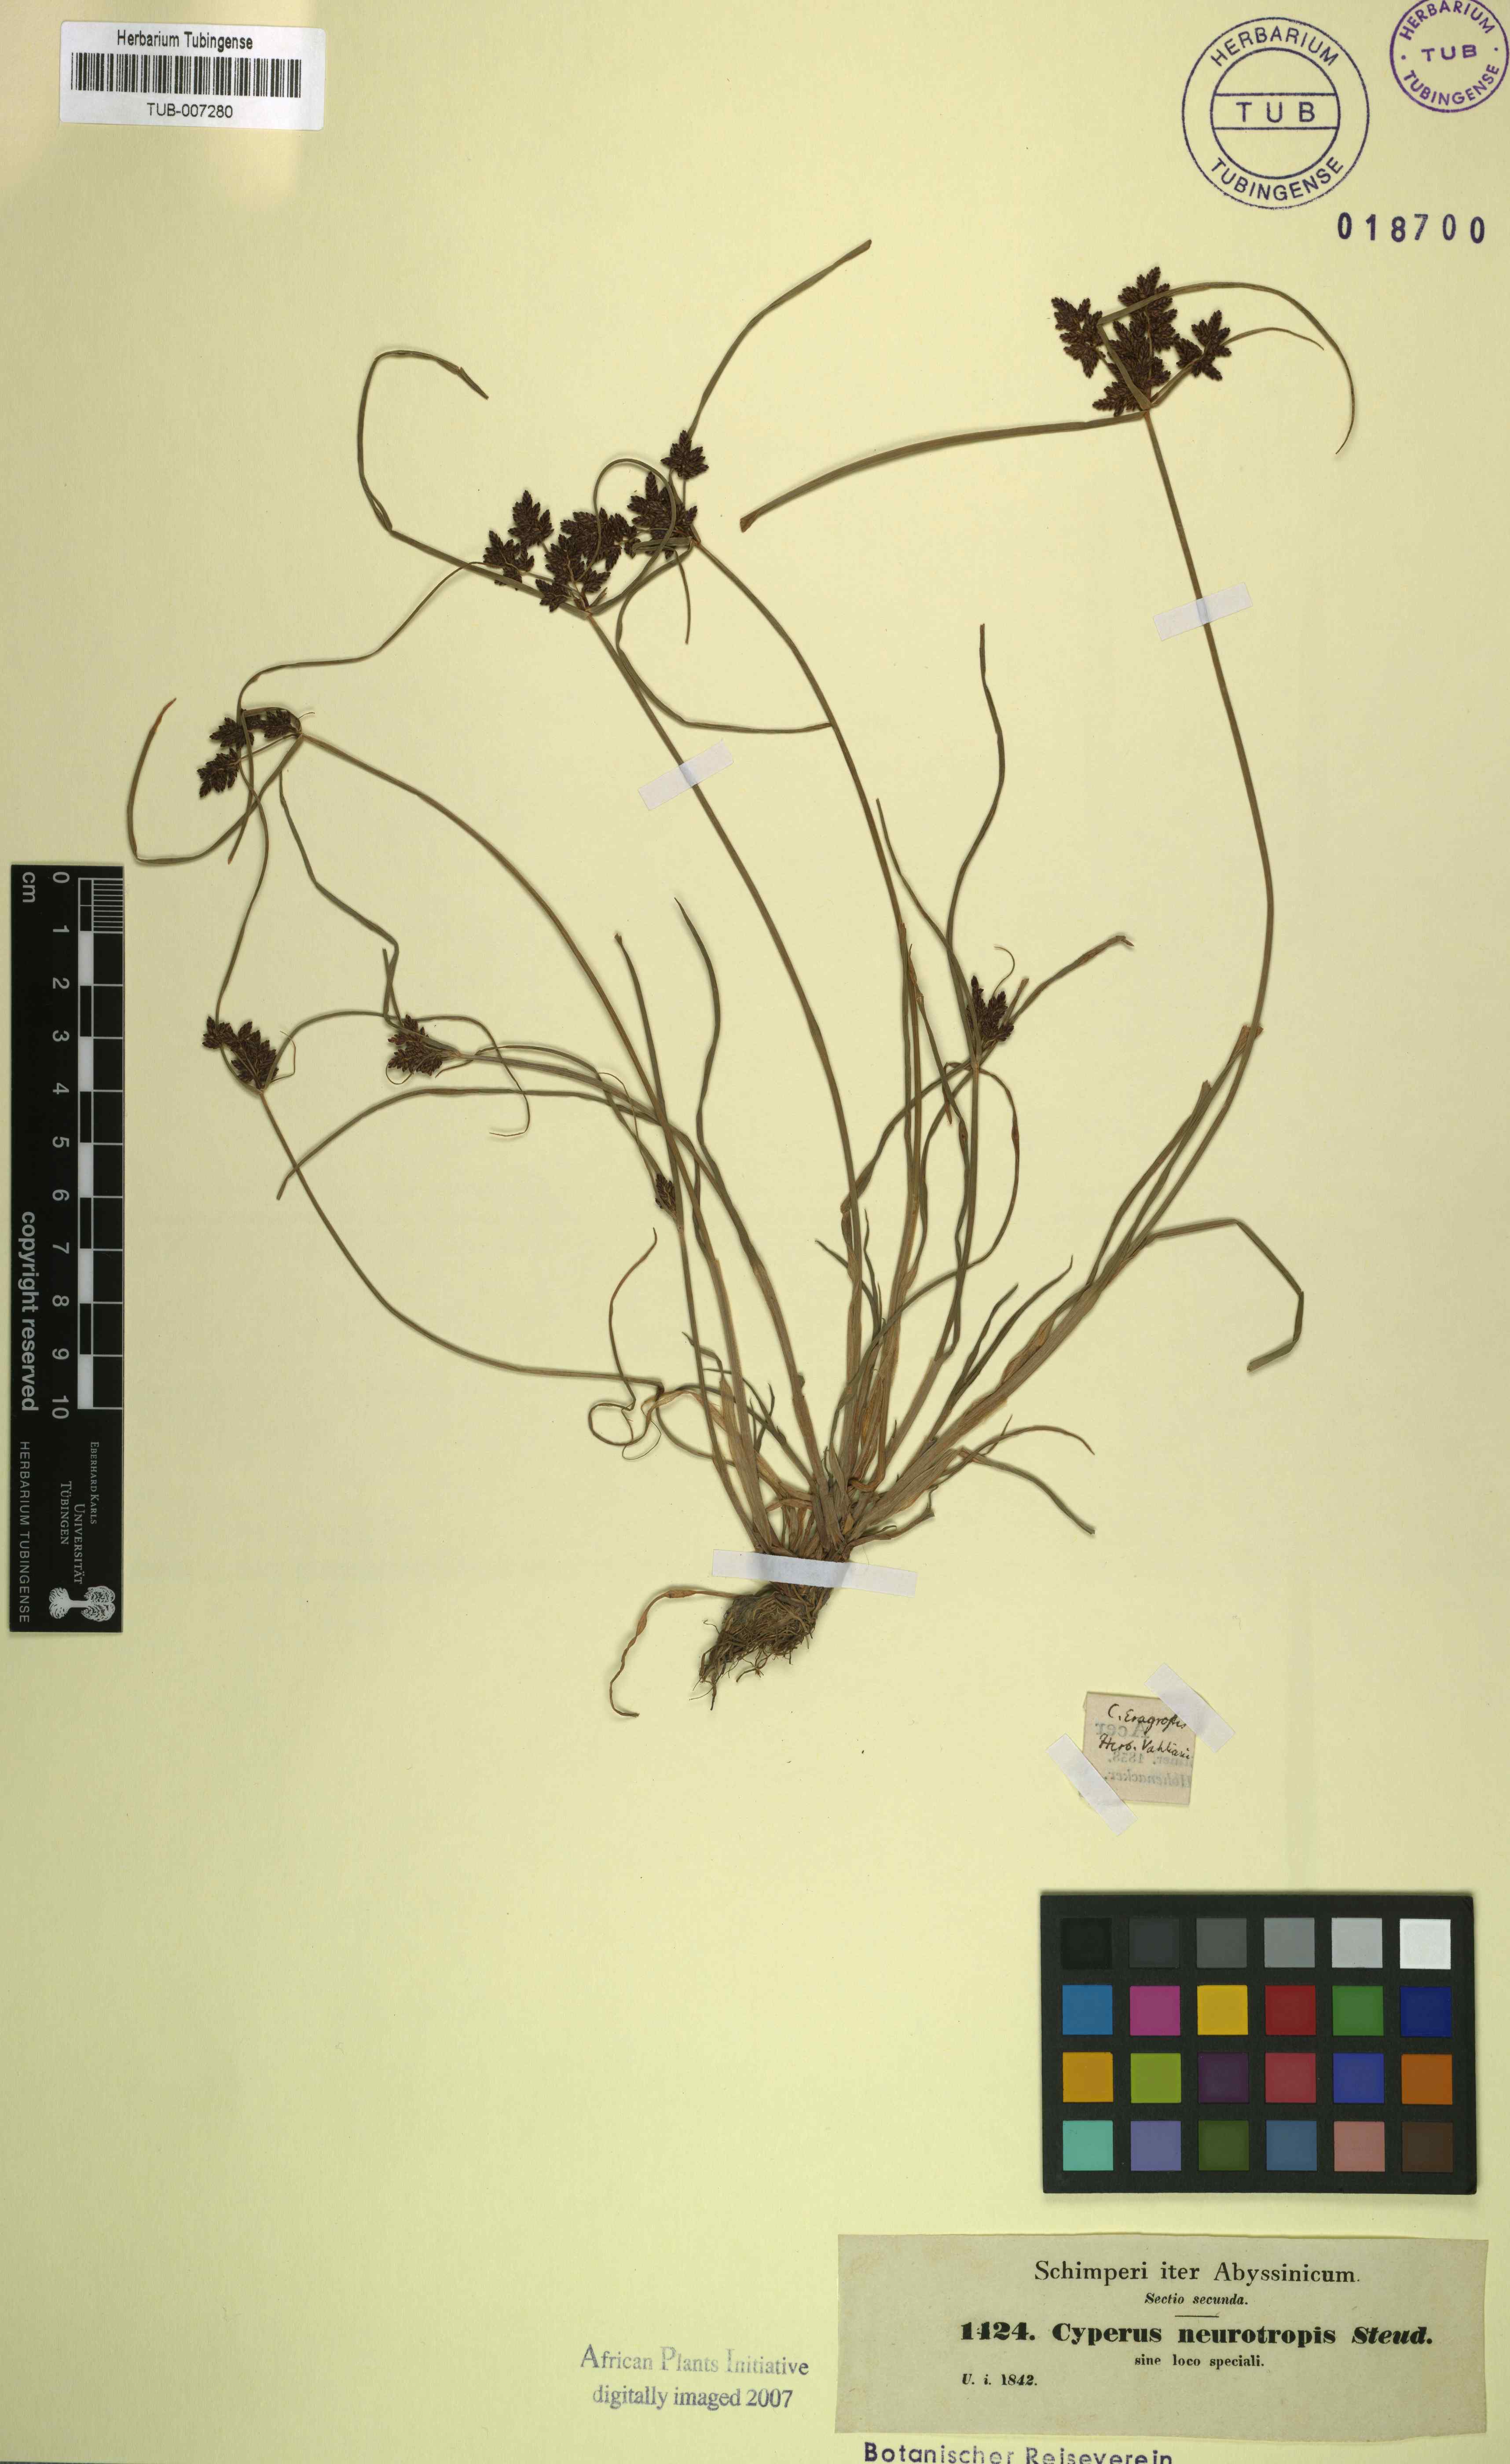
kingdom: Plantae
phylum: Tracheophyta
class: Liliopsida
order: Poales
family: Cyperaceae
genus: Cyperus
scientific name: Cyperus nevrotropis
